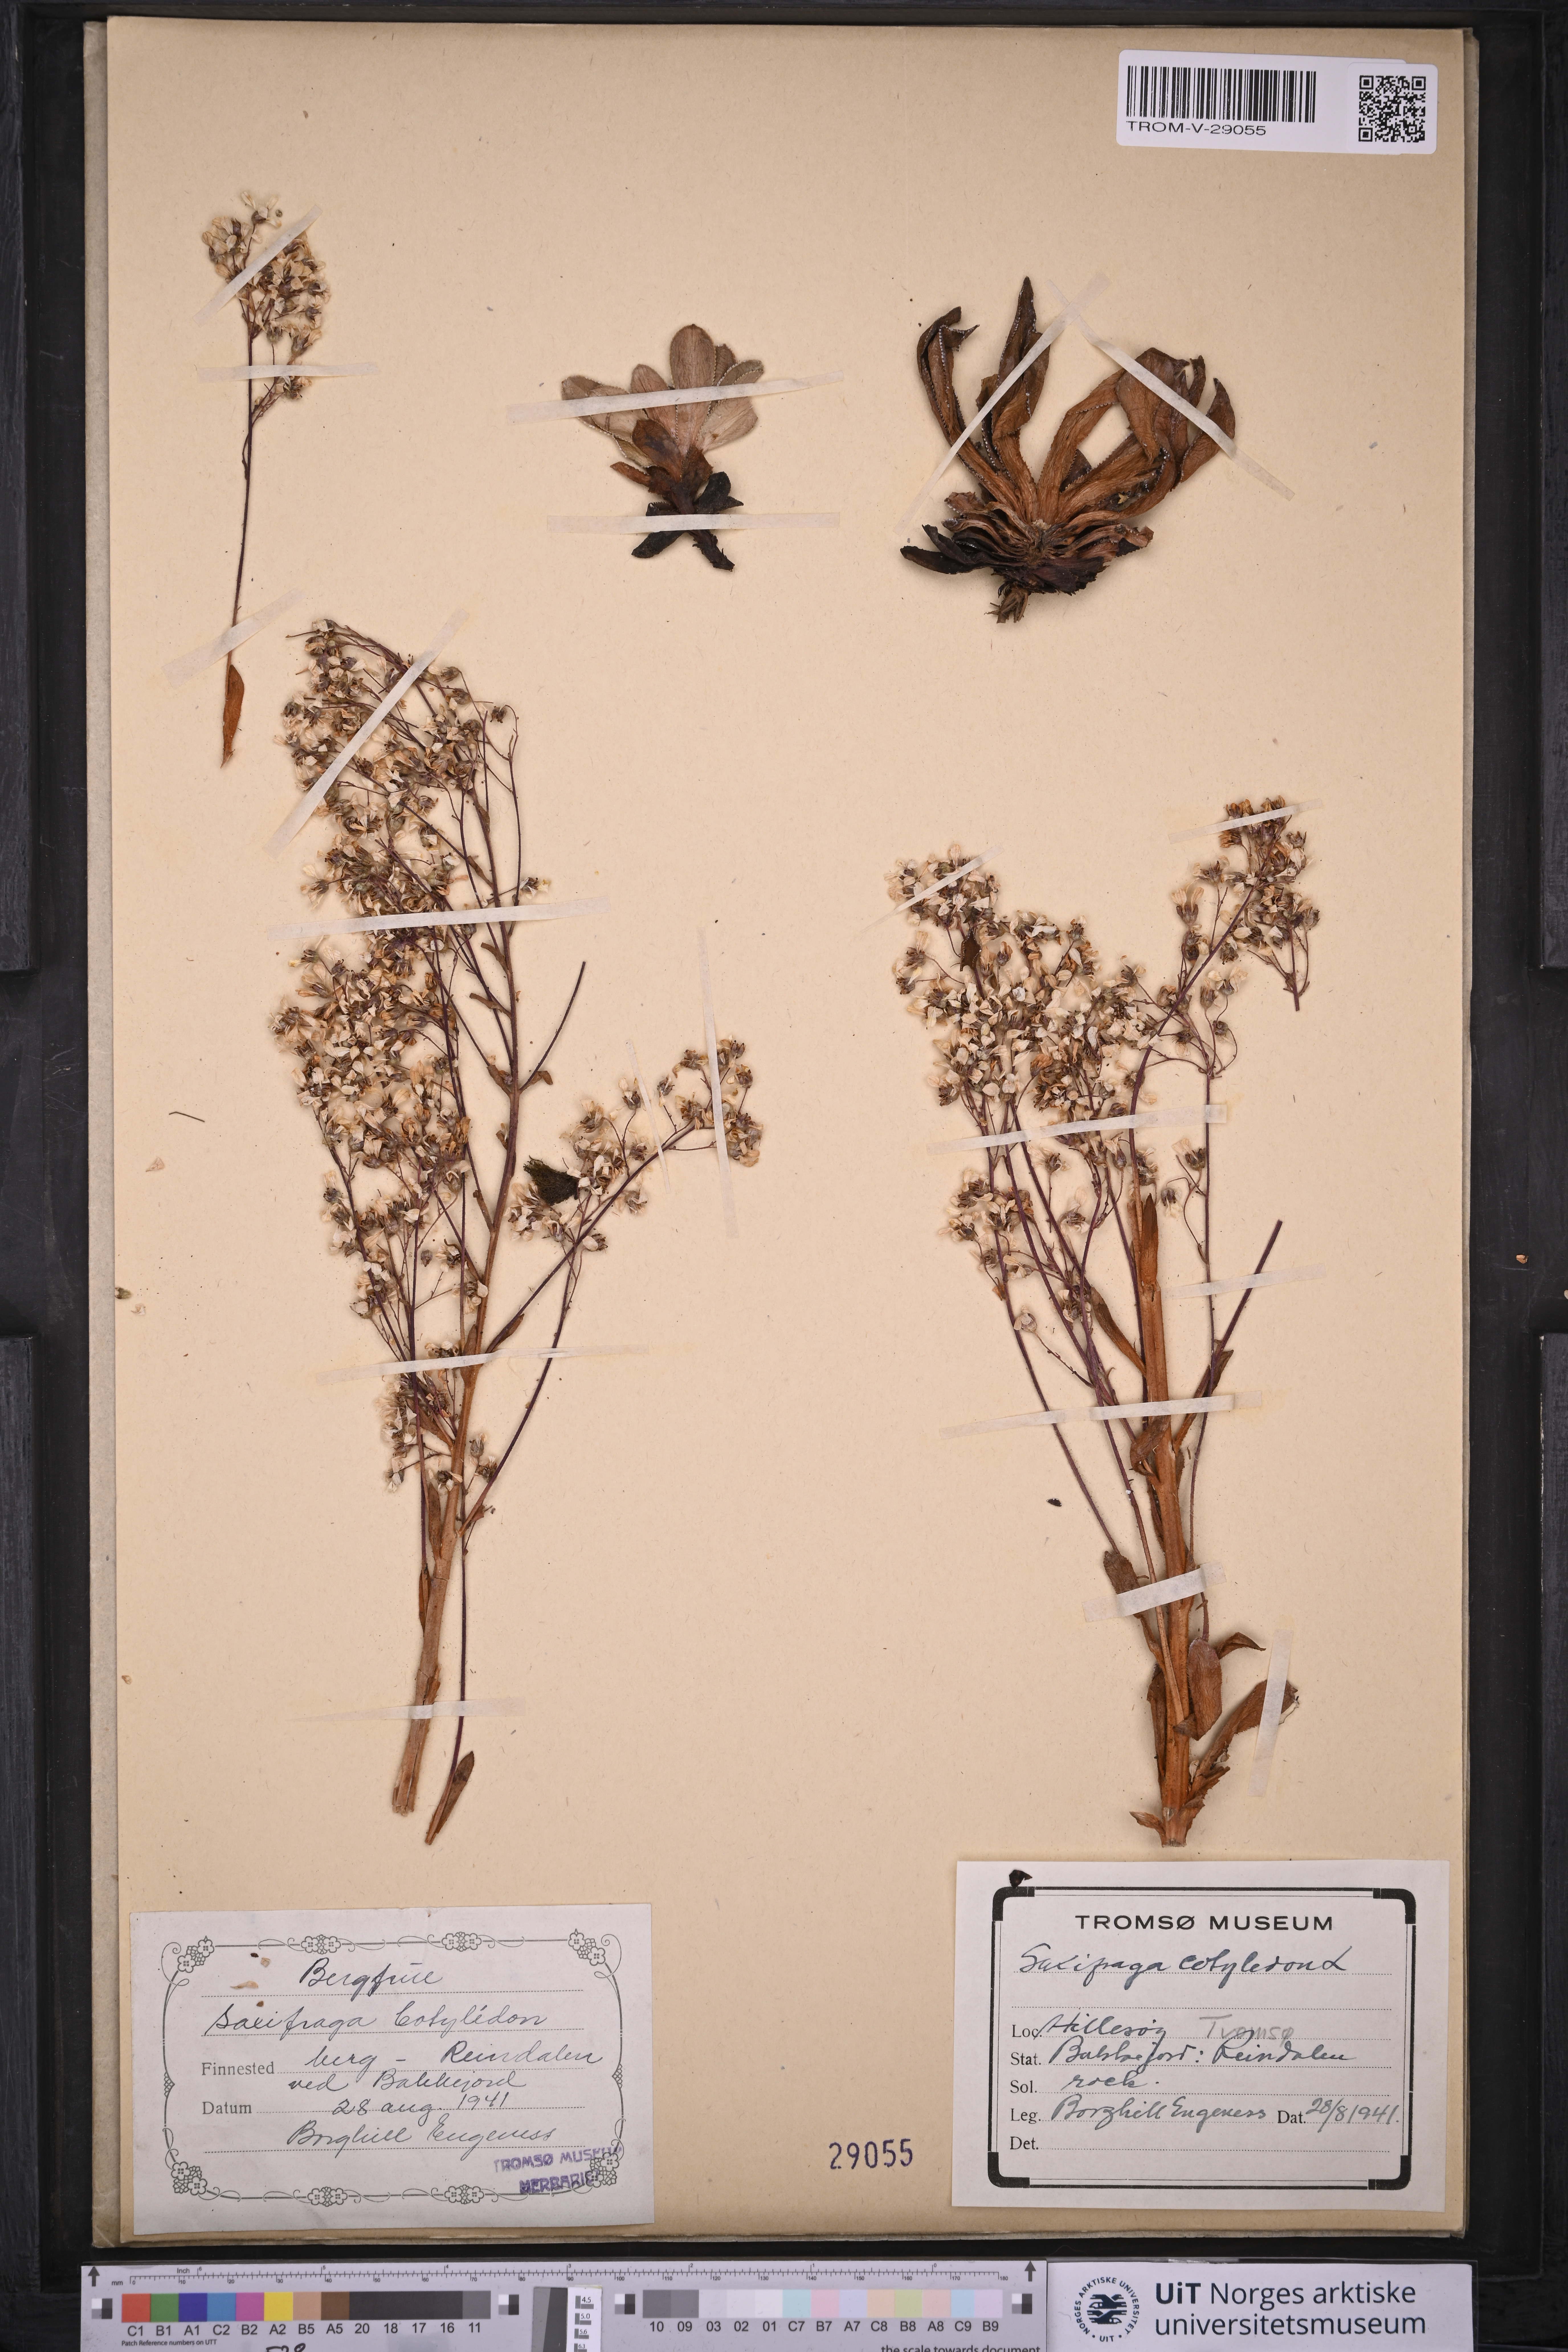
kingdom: Plantae
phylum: Tracheophyta
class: Magnoliopsida
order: Saxifragales
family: Saxifragaceae
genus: Saxifraga
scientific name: Saxifraga cotyledon
